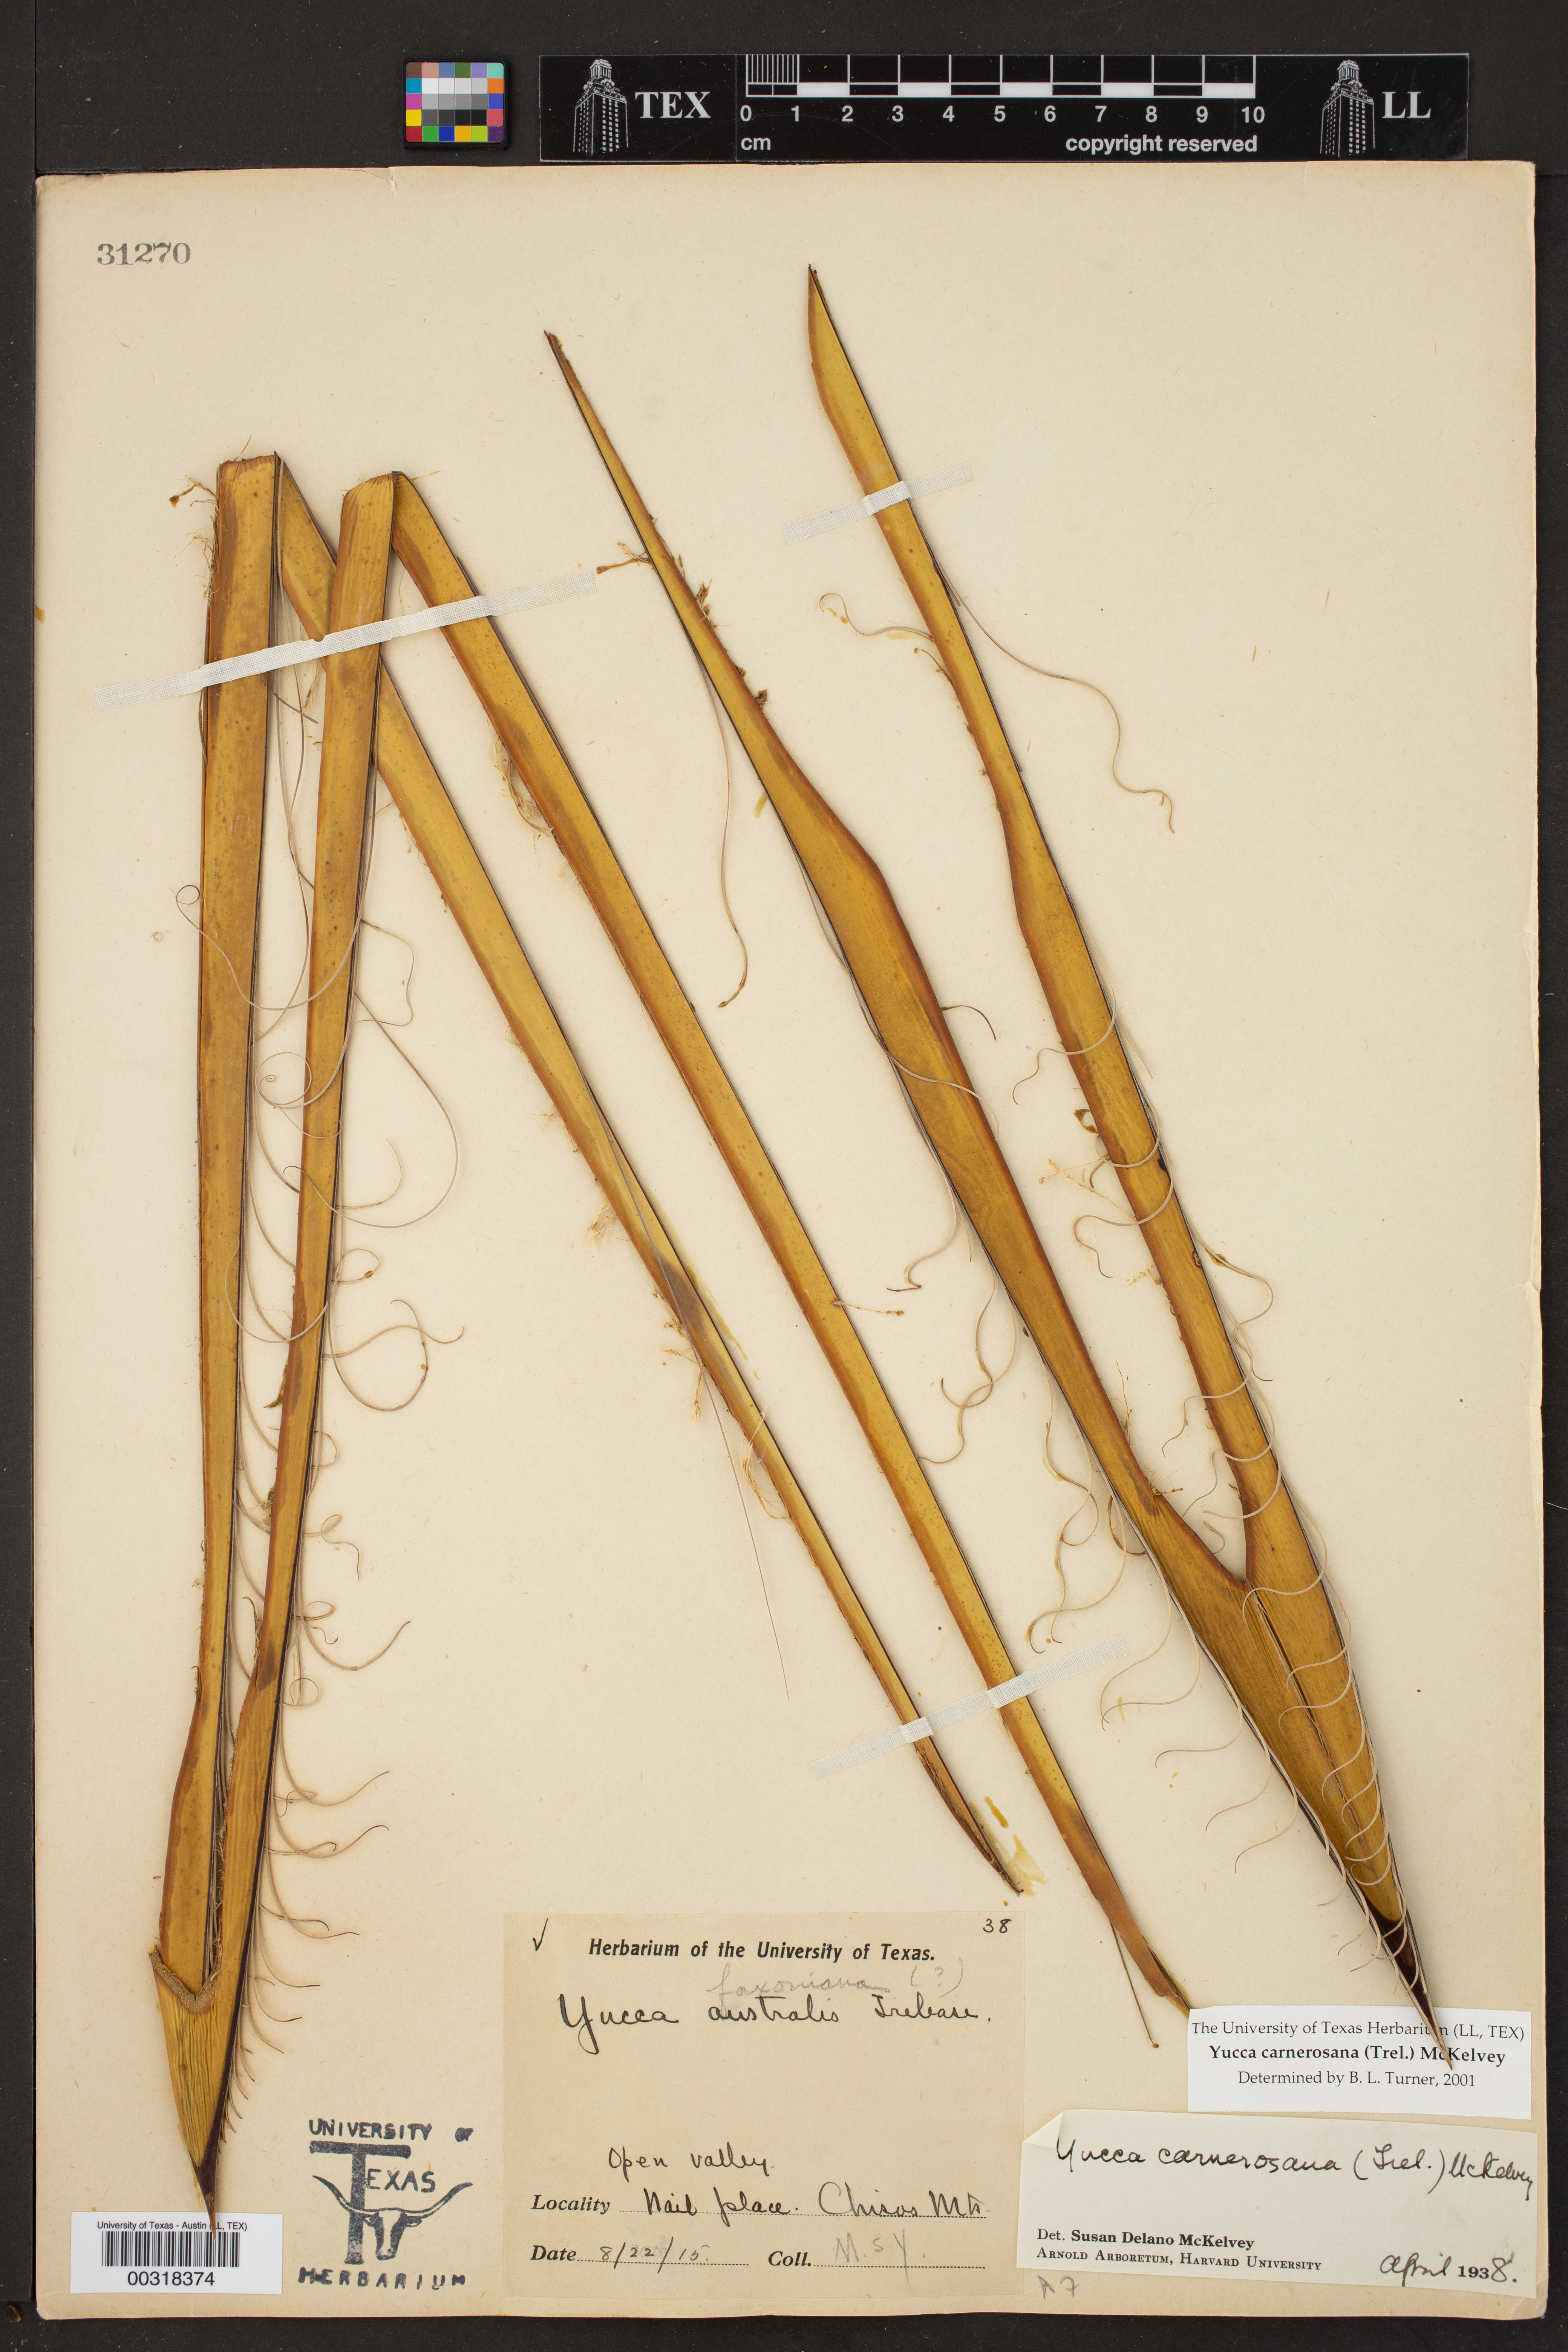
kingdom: Plantae
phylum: Tracheophyta
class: Liliopsida
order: Asparagales
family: Asparagaceae
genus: Yucca
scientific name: Yucca carnerosana
